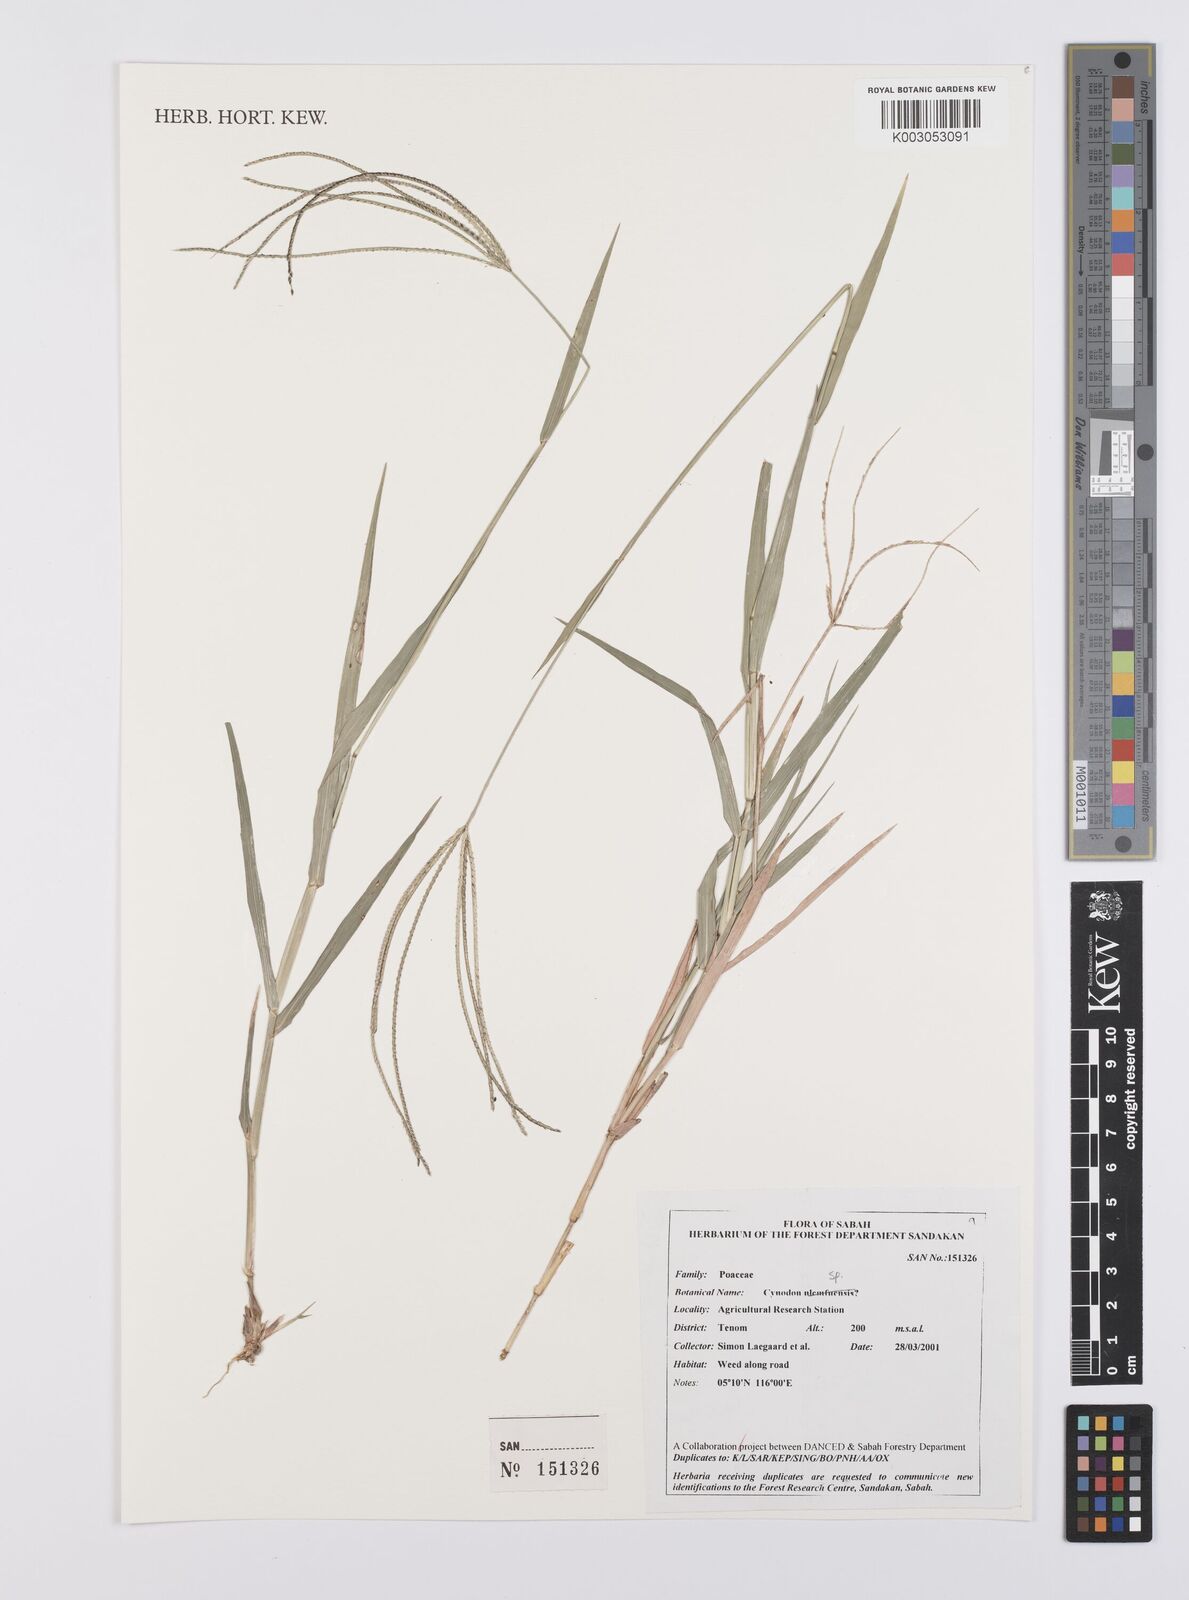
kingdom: Plantae
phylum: Tracheophyta
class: Liliopsida
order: Poales
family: Poaceae
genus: Cynodon
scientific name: Cynodon
